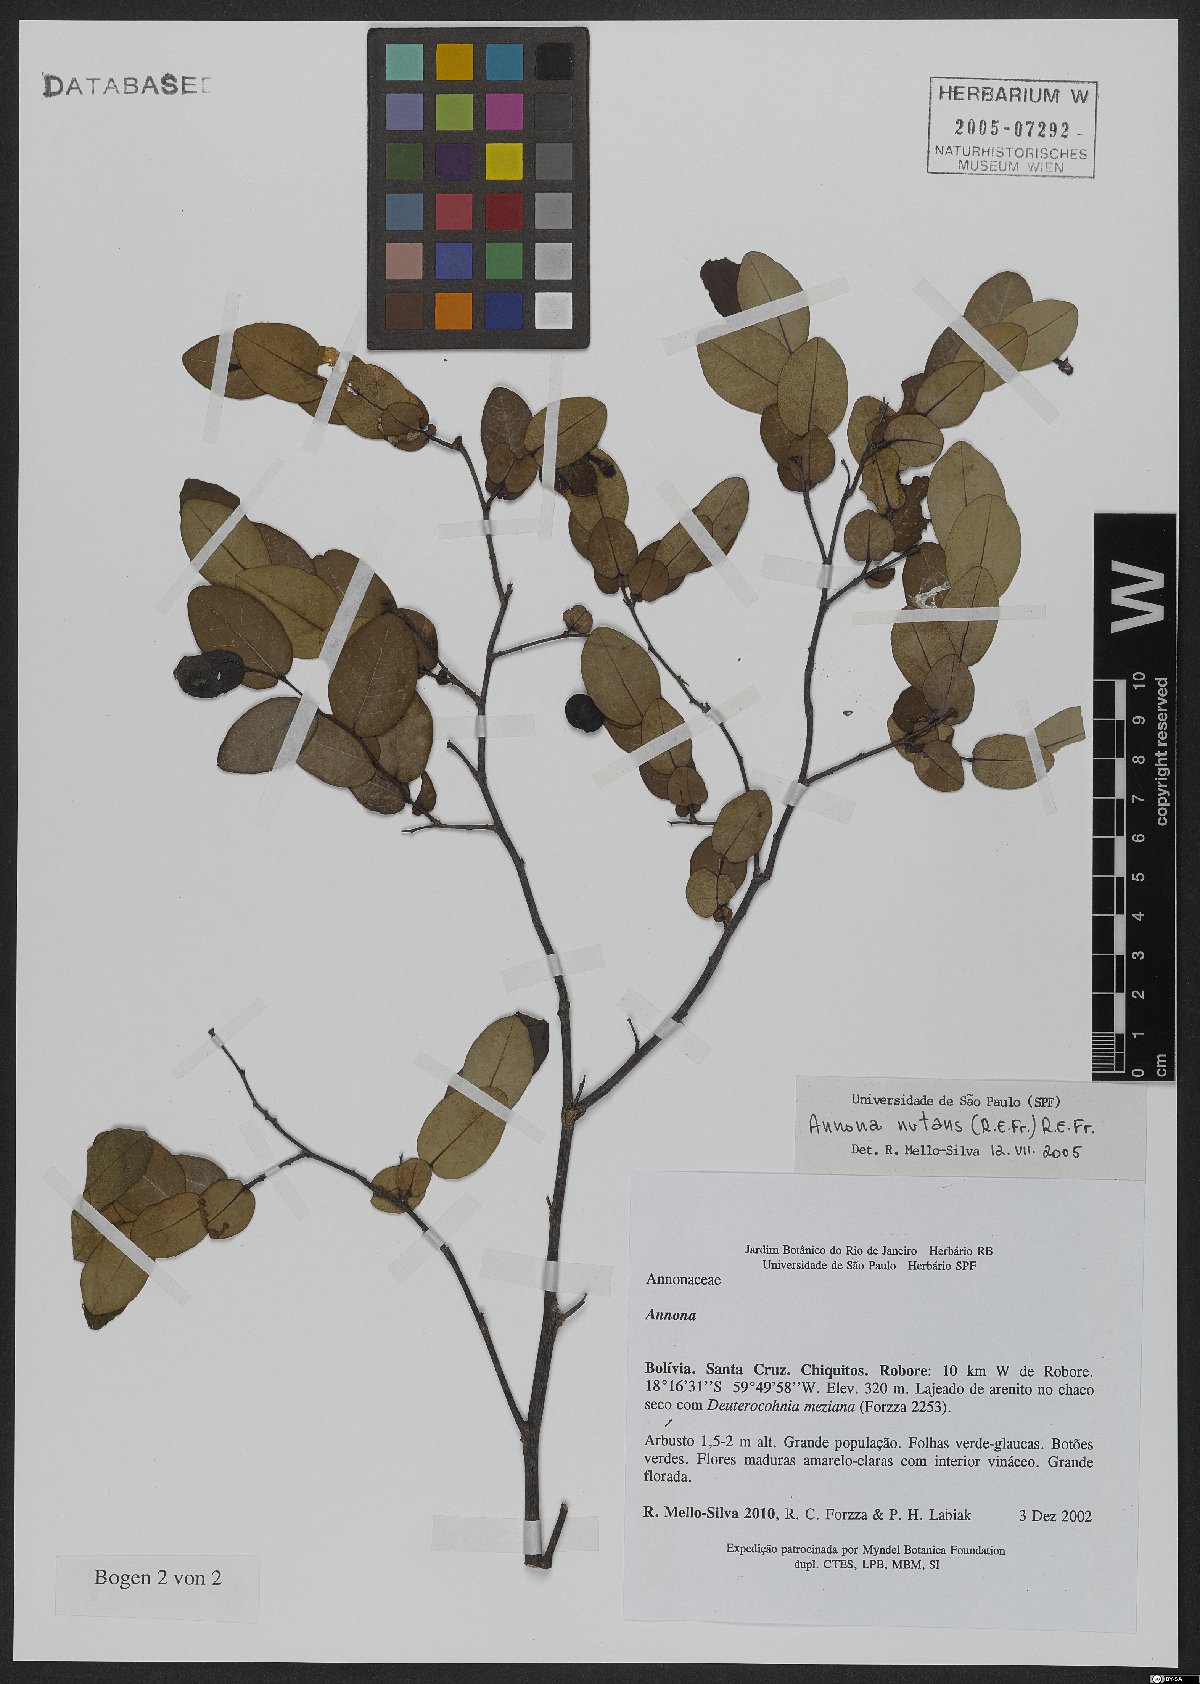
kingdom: Plantae
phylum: Tracheophyta
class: Magnoliopsida
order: Magnoliales
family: Annonaceae
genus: Annona
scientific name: Annona nutans
